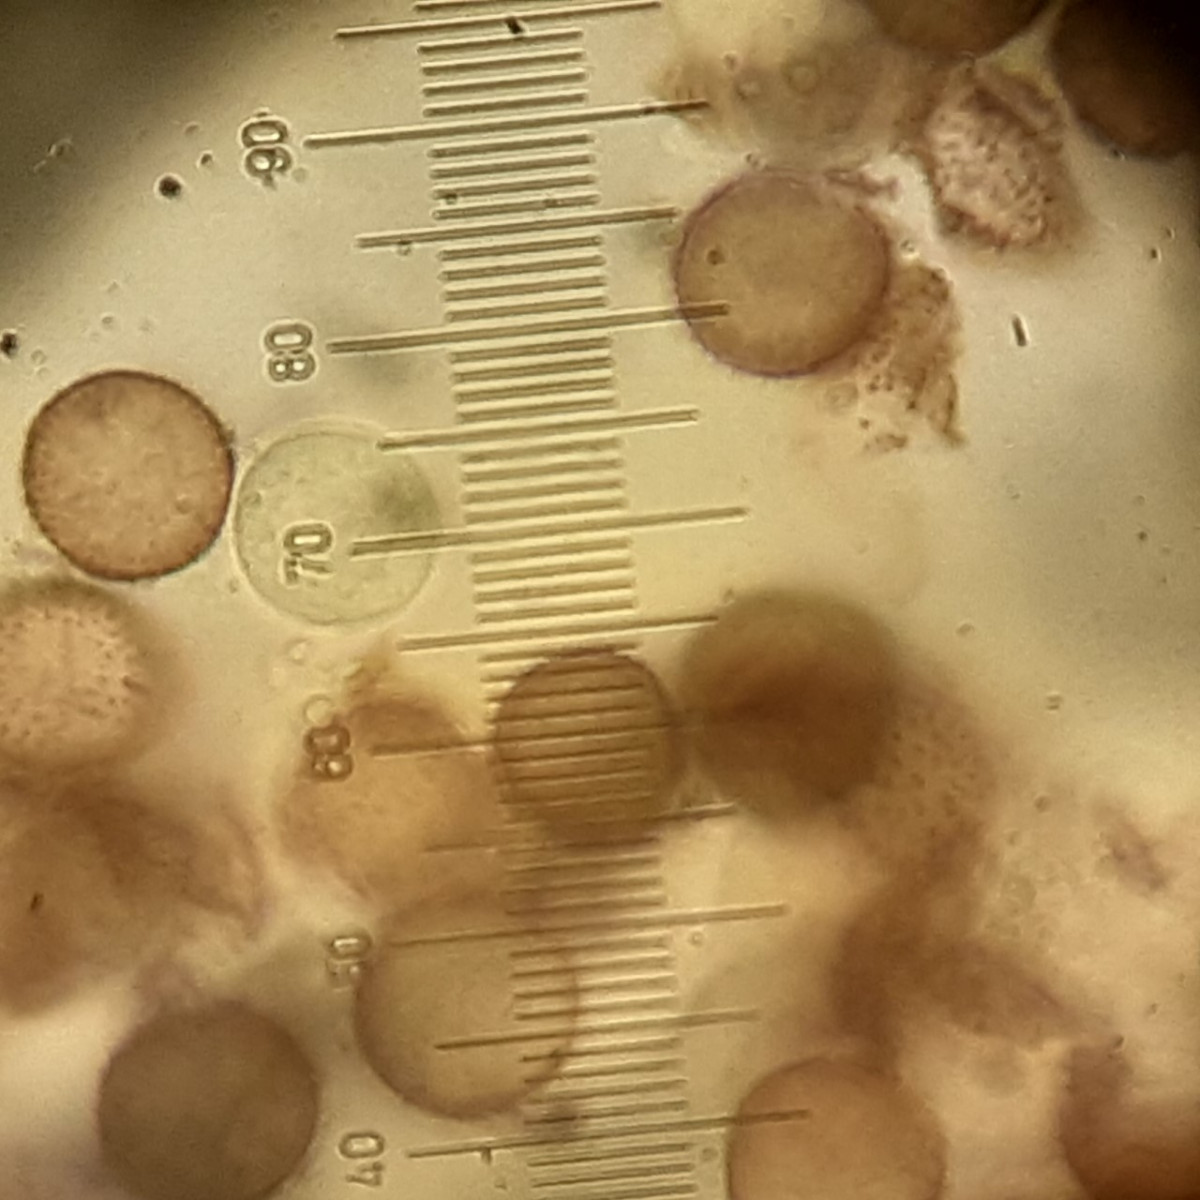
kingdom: Protozoa
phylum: Mycetozoa
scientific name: Mycetozoa
